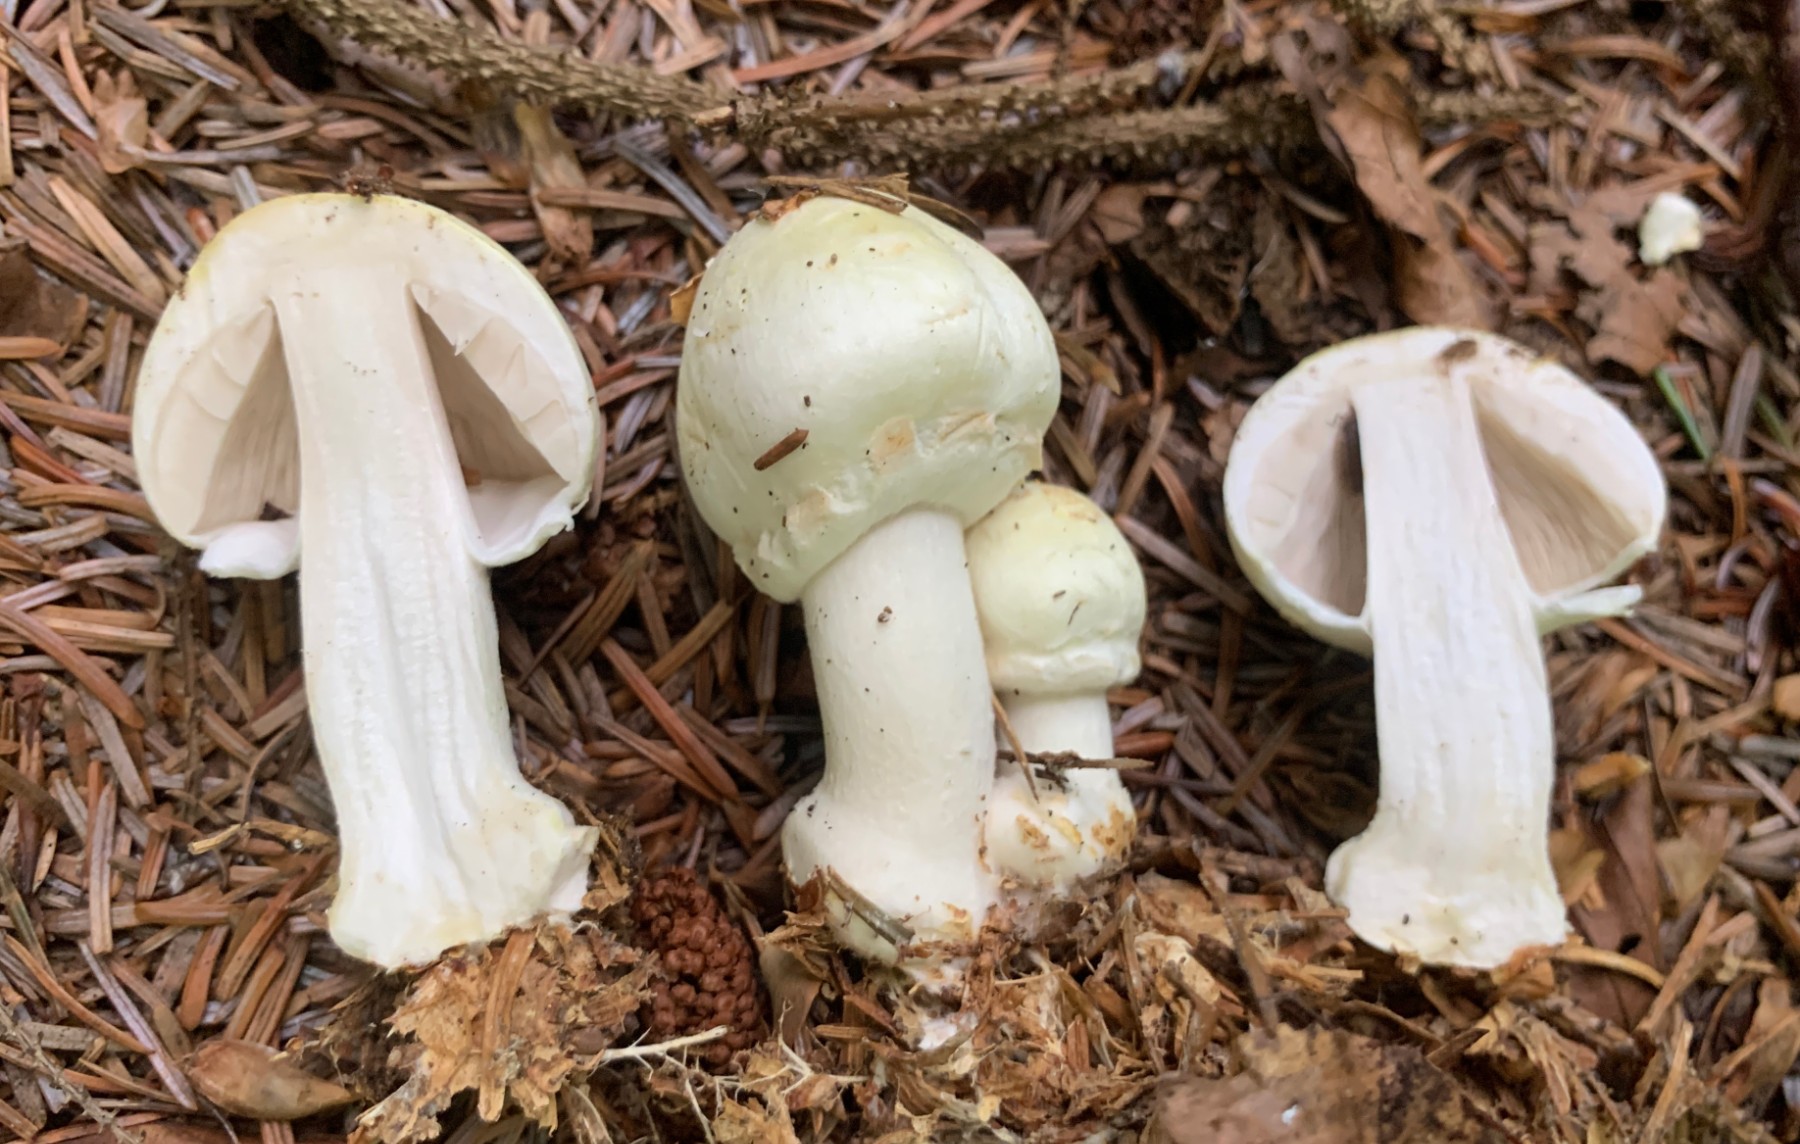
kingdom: Fungi
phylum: Basidiomycota
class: Agaricomycetes
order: Agaricales
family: Agaricaceae
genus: Agaricus
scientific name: Agaricus sylvicola
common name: gulhvid champignon
